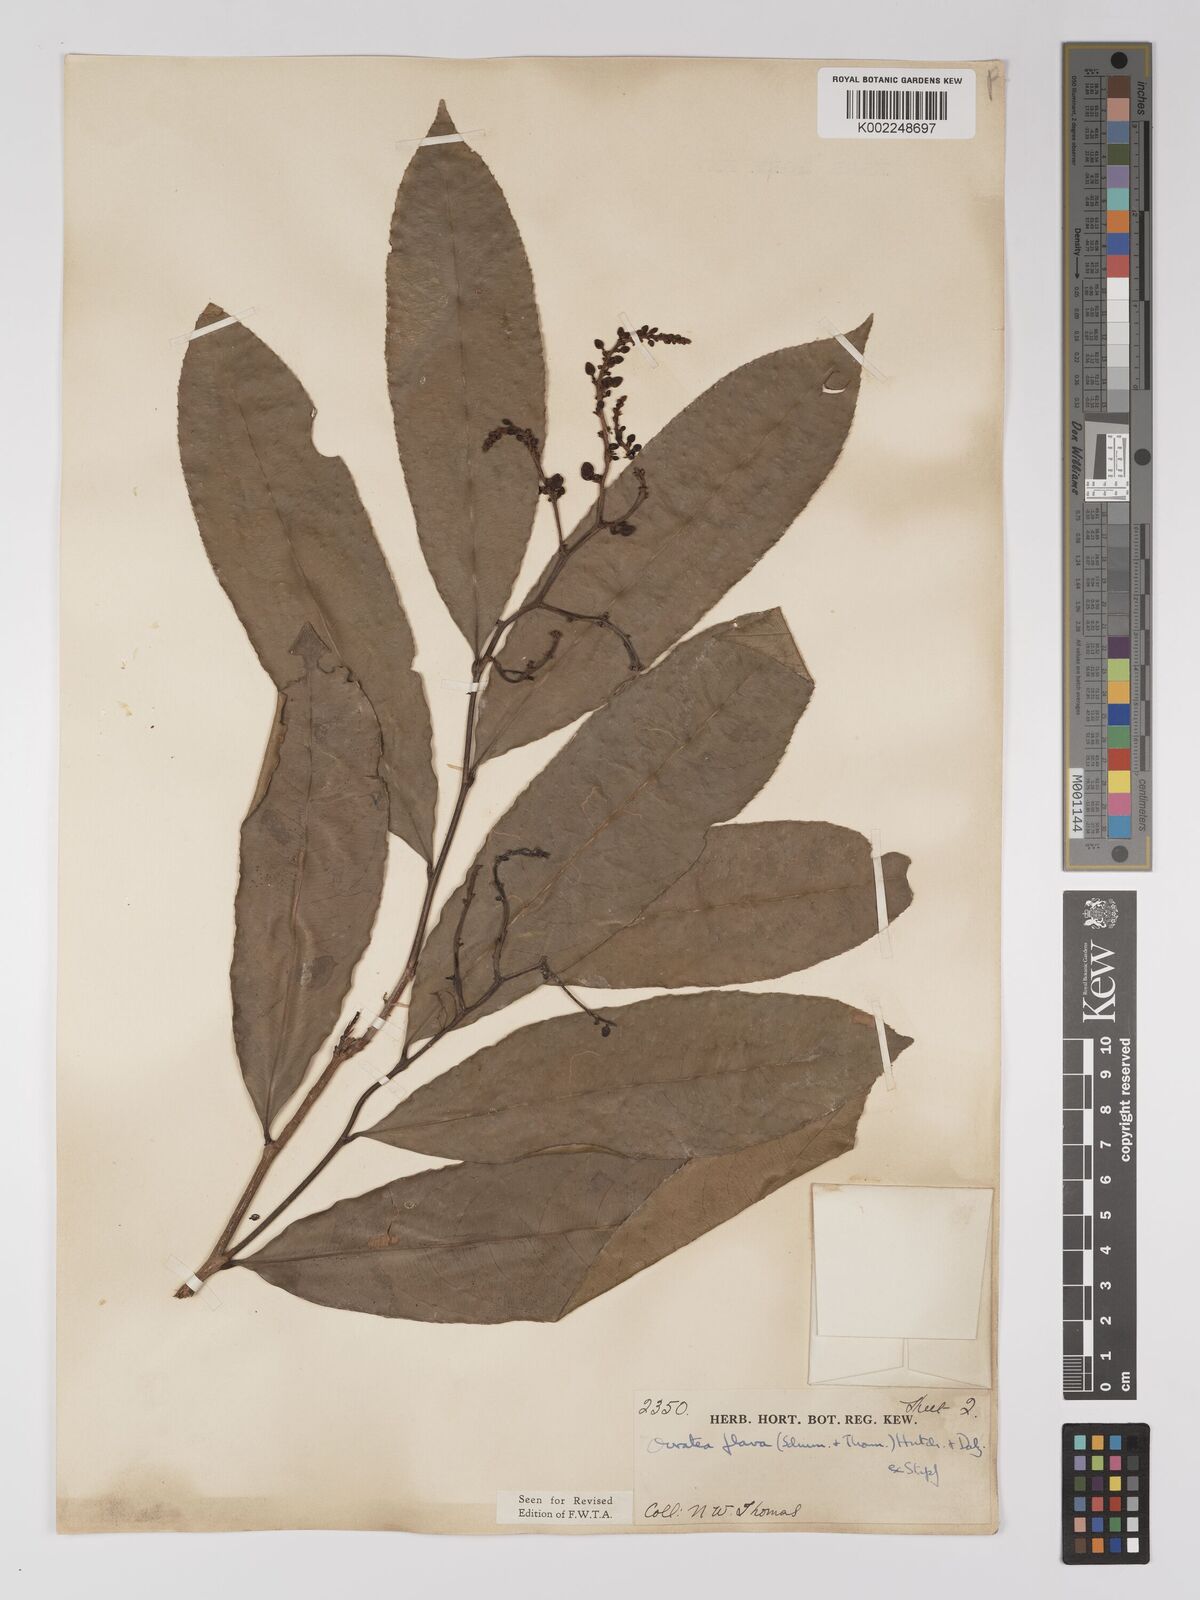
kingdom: Plantae
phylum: Tracheophyta
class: Magnoliopsida
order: Malpighiales
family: Ochnaceae
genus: Campylospermum
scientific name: Campylospermum flavum
